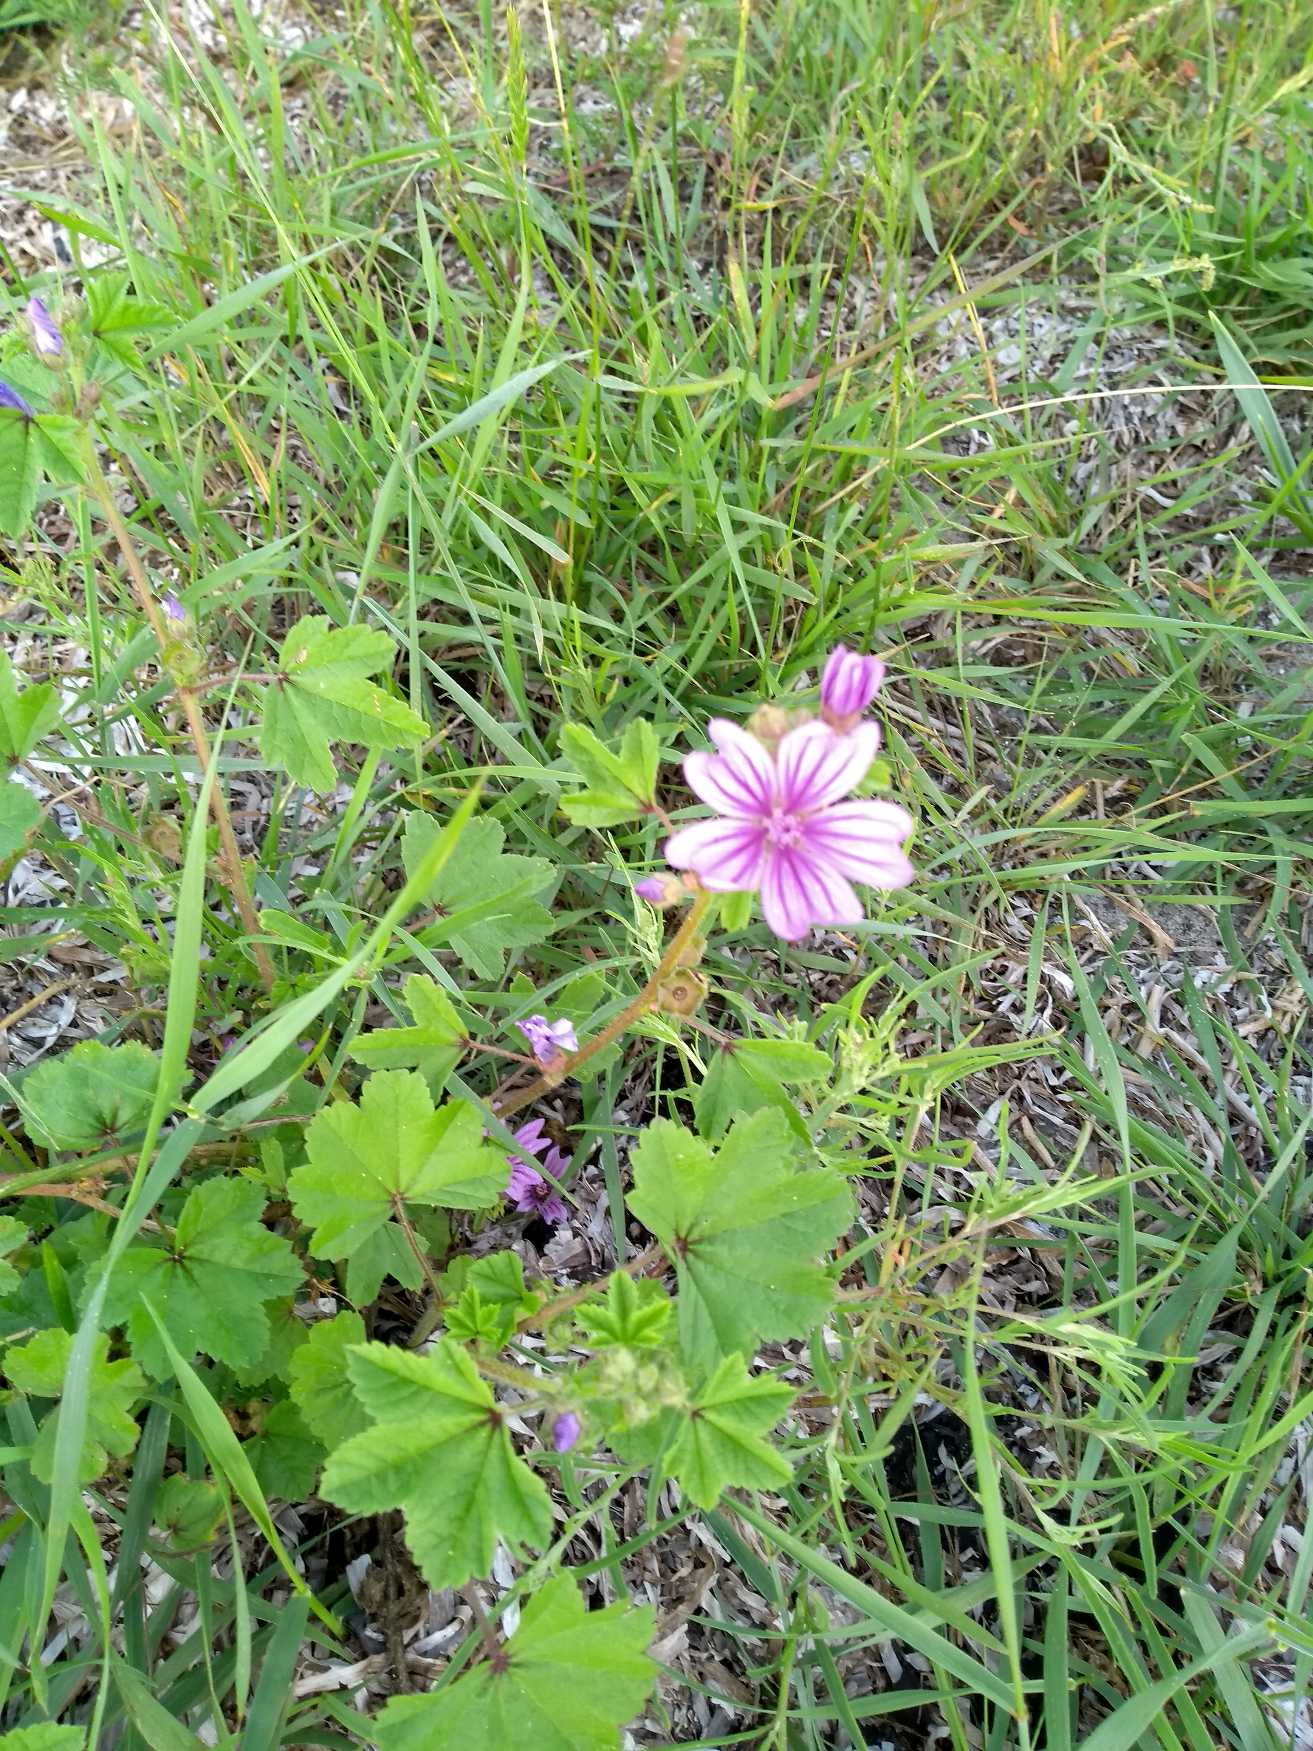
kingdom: Plantae
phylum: Tracheophyta
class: Magnoliopsida
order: Malvales
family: Malvaceae
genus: Malva
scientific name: Malva sylvestris
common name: Almindelig katost
